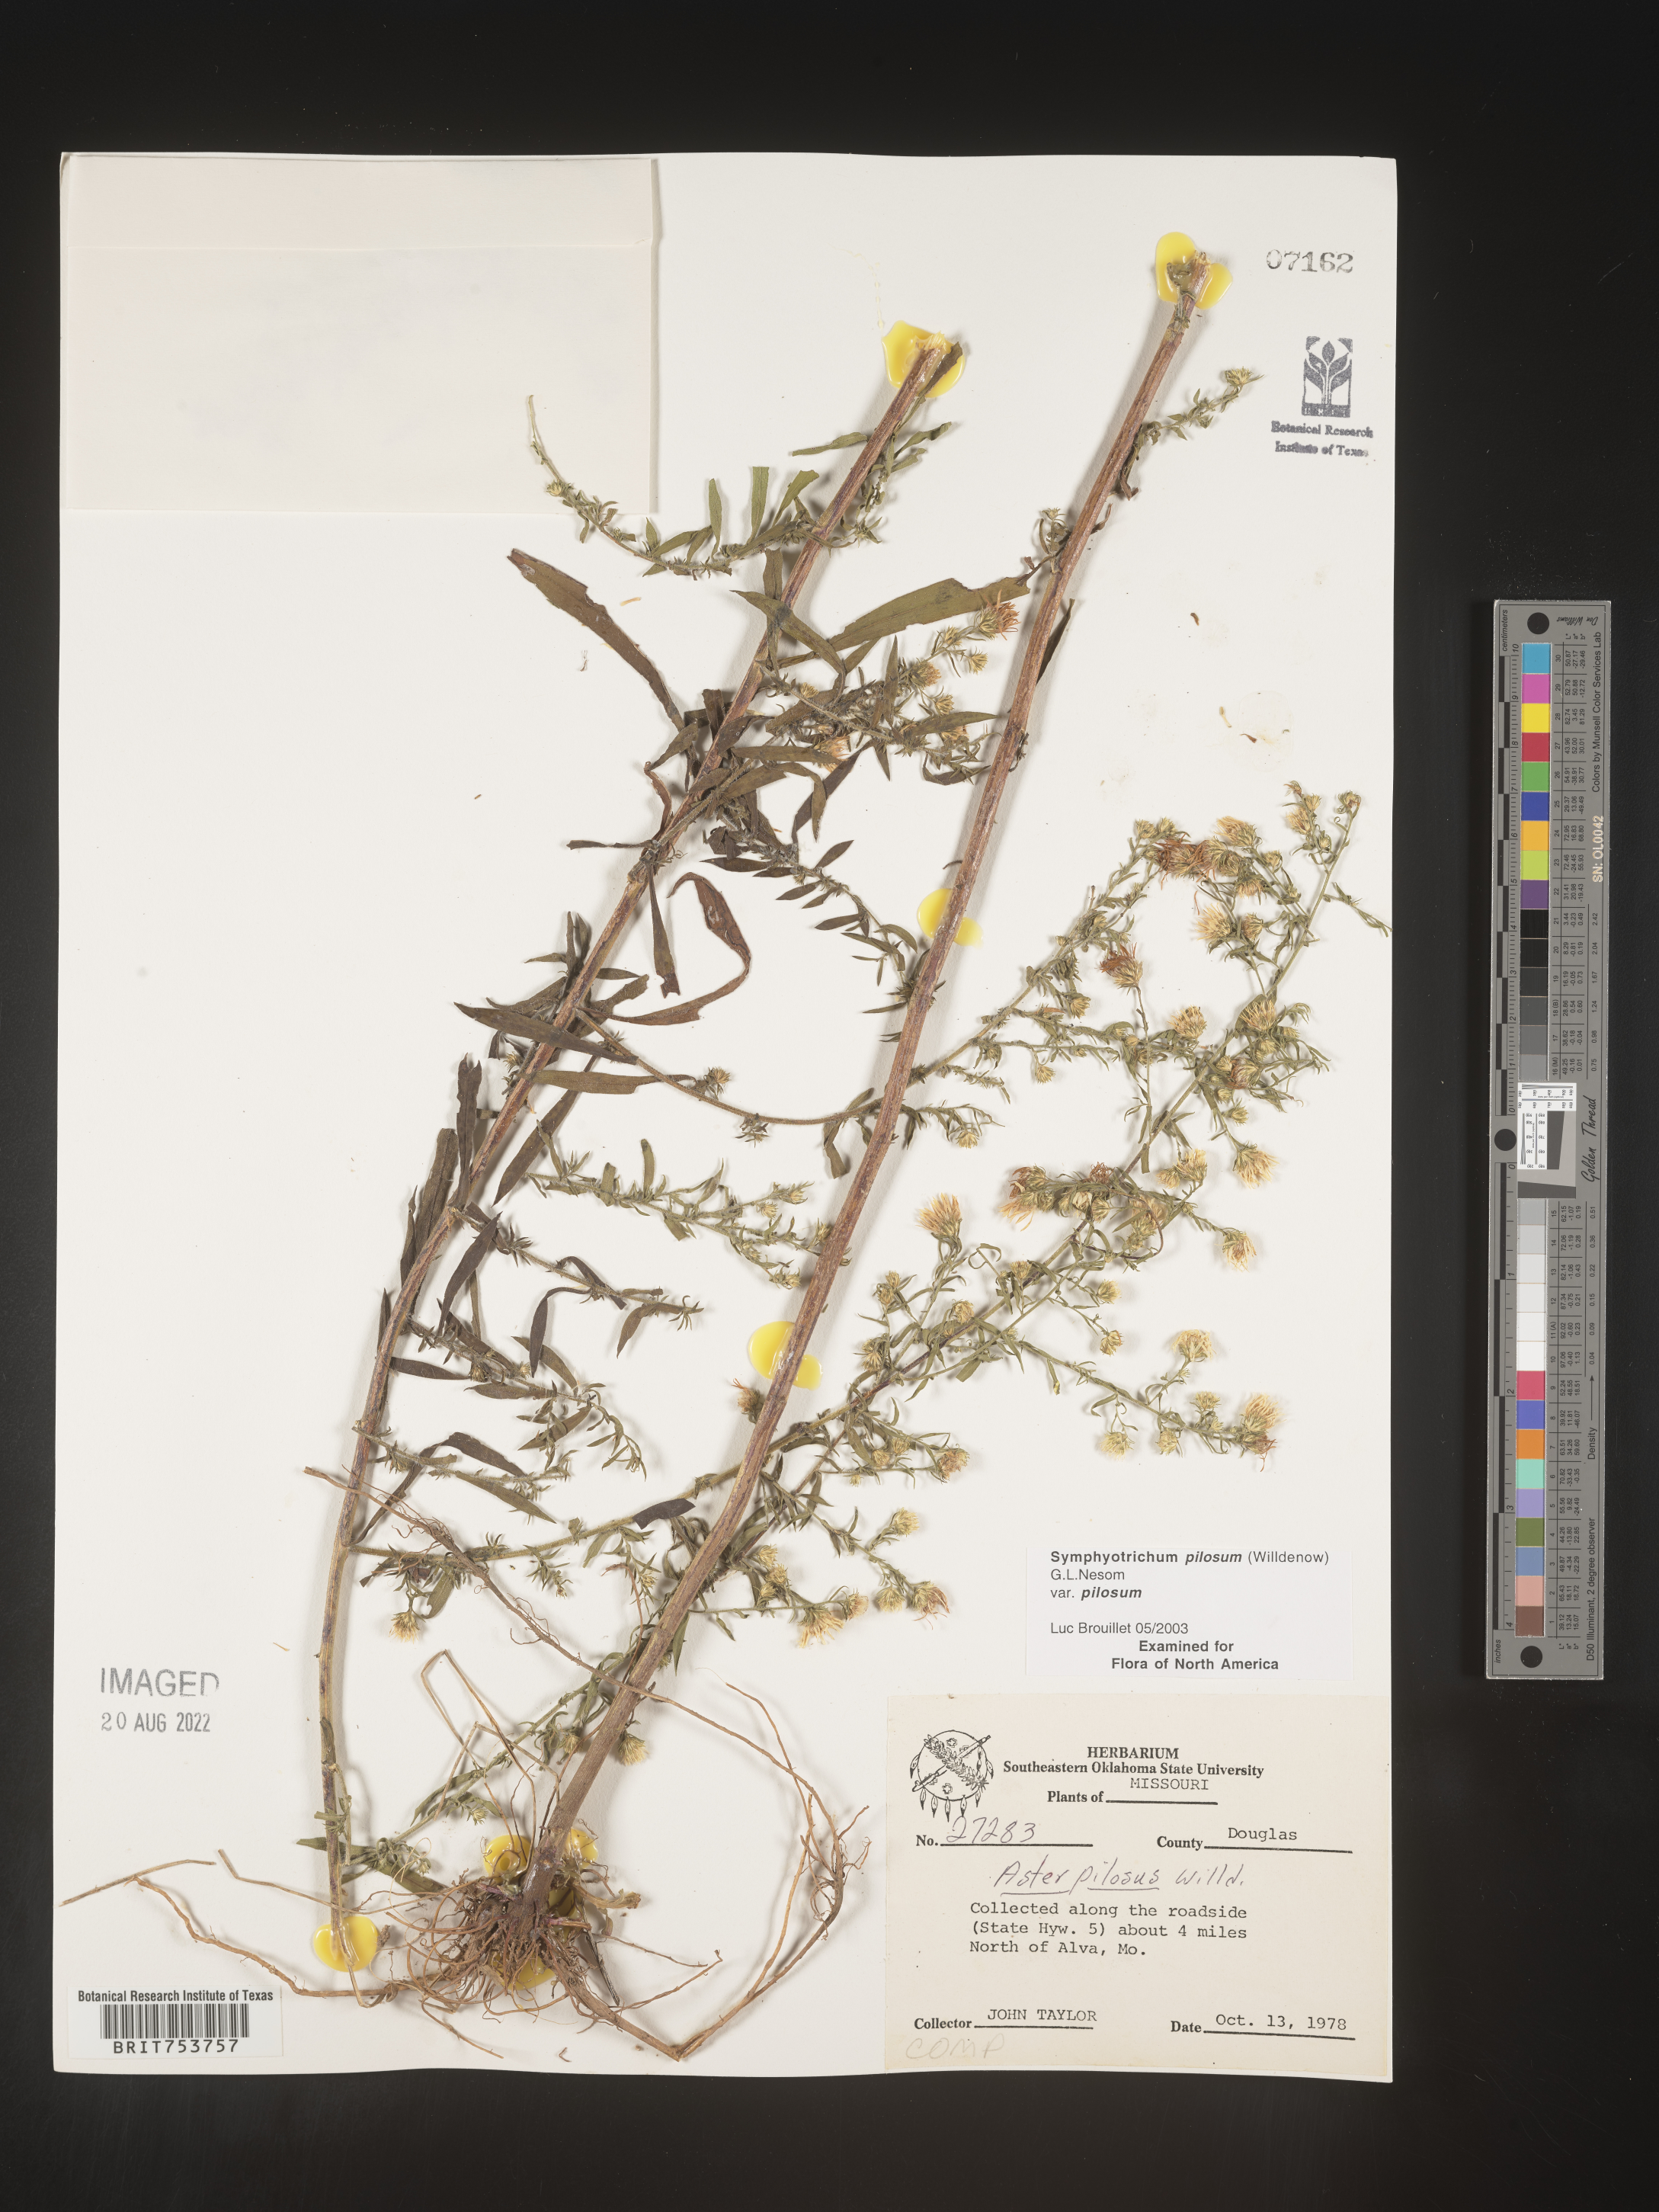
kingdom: Plantae
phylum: Tracheophyta
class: Magnoliopsida
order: Asterales
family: Asteraceae
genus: Symphyotrichum
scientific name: Symphyotrichum pilosum
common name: Awl aster
